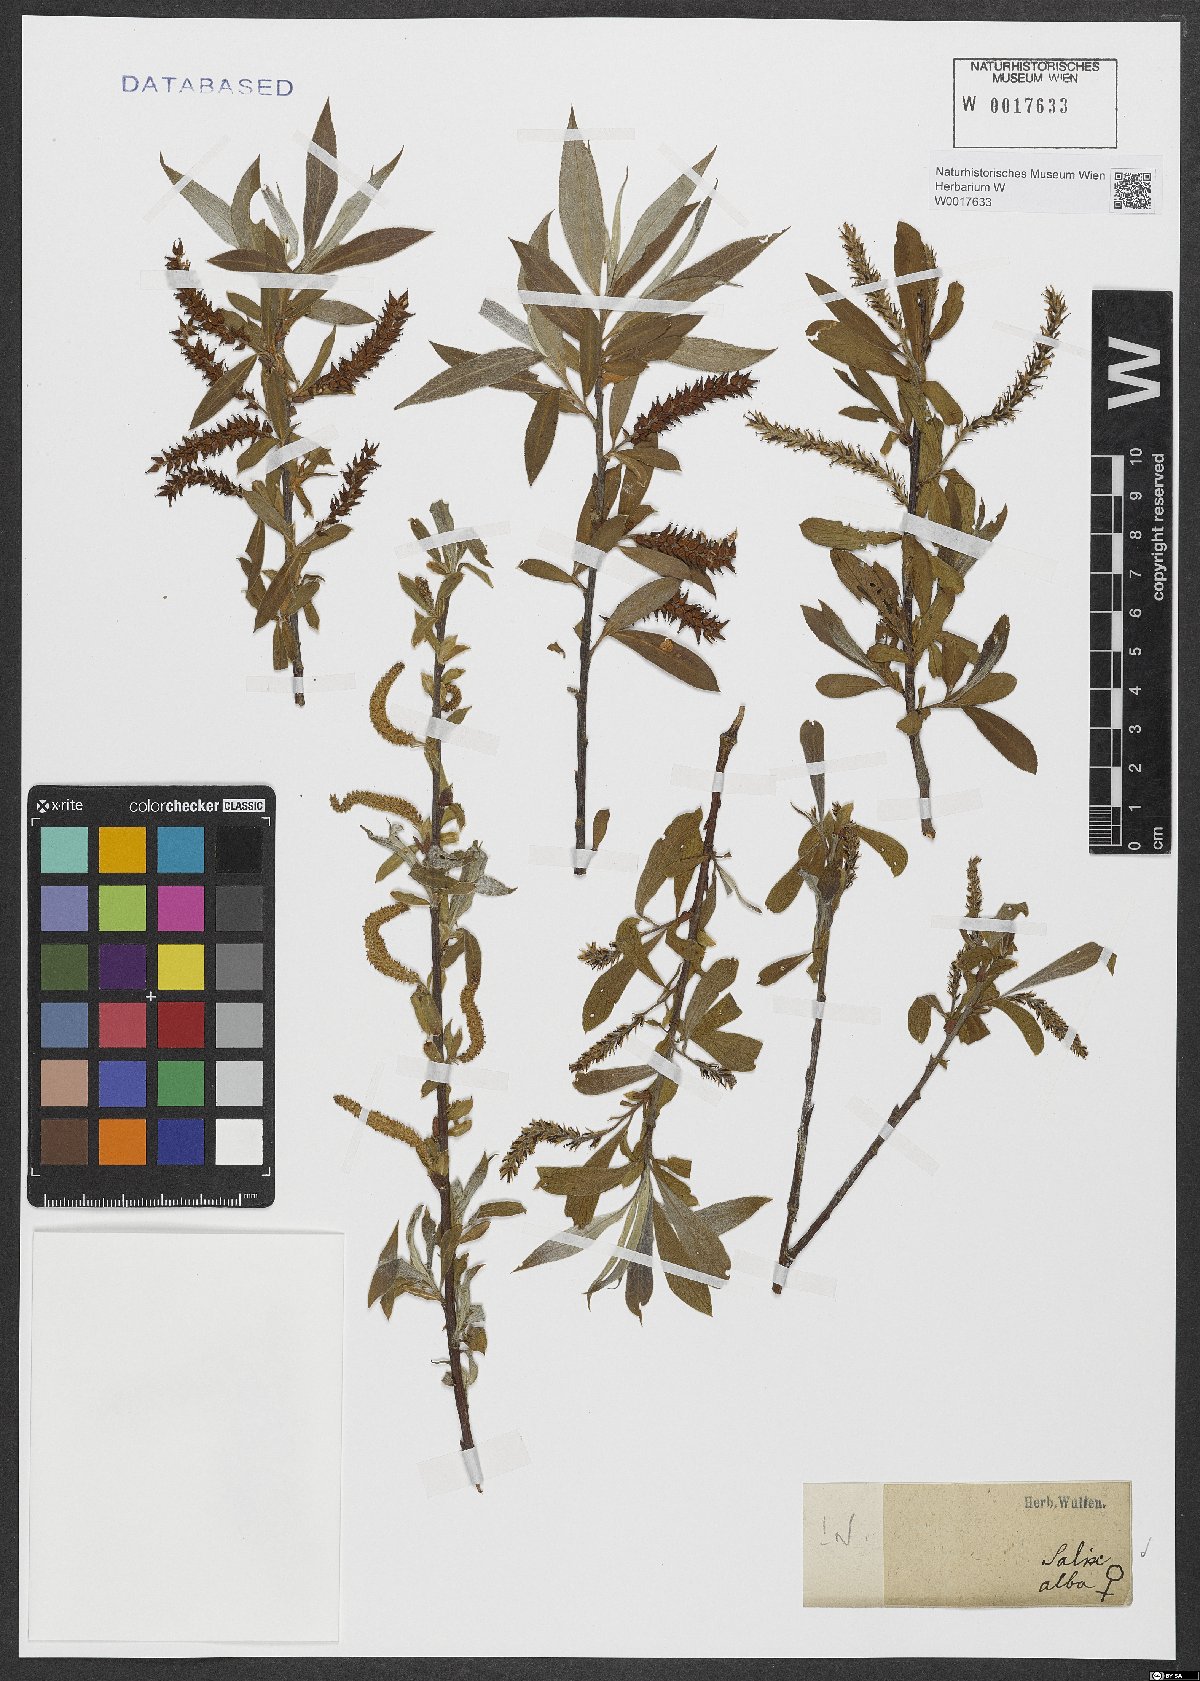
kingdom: Plantae
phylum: Tracheophyta
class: Magnoliopsida
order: Malpighiales
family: Salicaceae
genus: Salix
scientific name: Salix alba
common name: White willow
